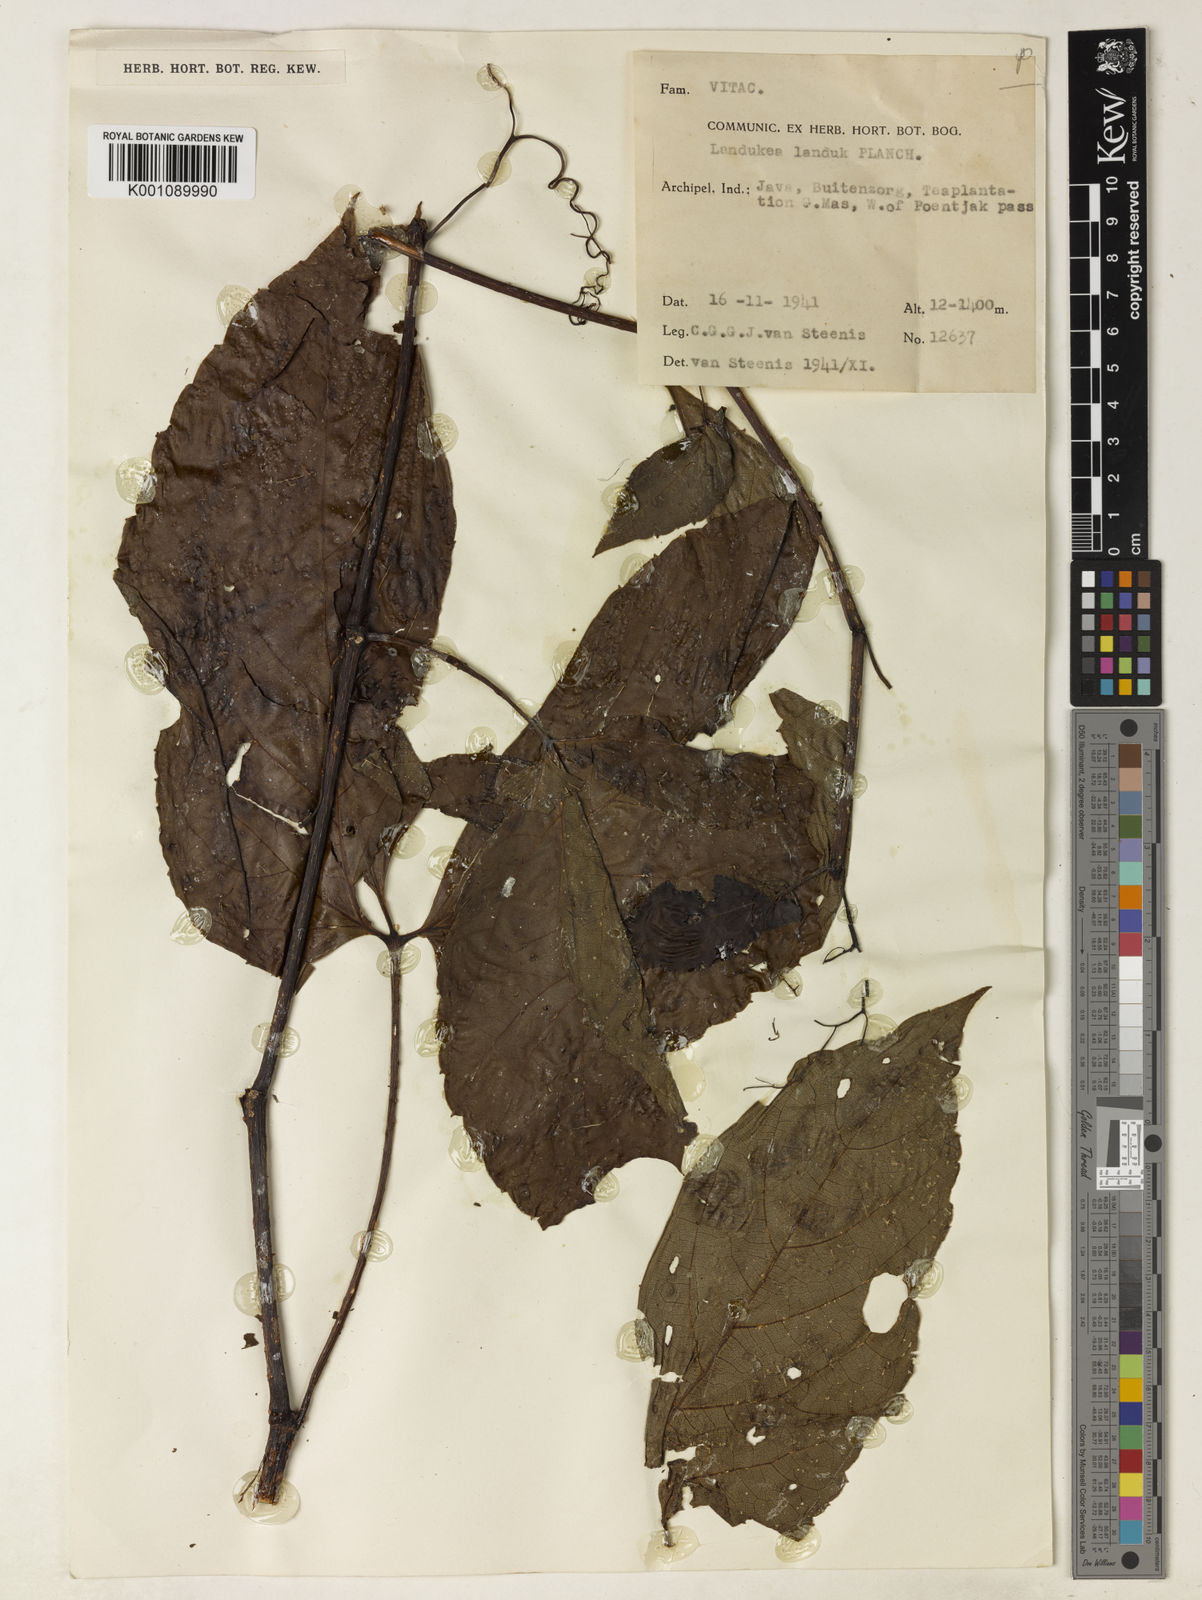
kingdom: Plantae
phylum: Tracheophyta
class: Magnoliopsida
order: Vitales
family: Vitaceae
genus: Parthenocissus
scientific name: Parthenocissus semicordata
